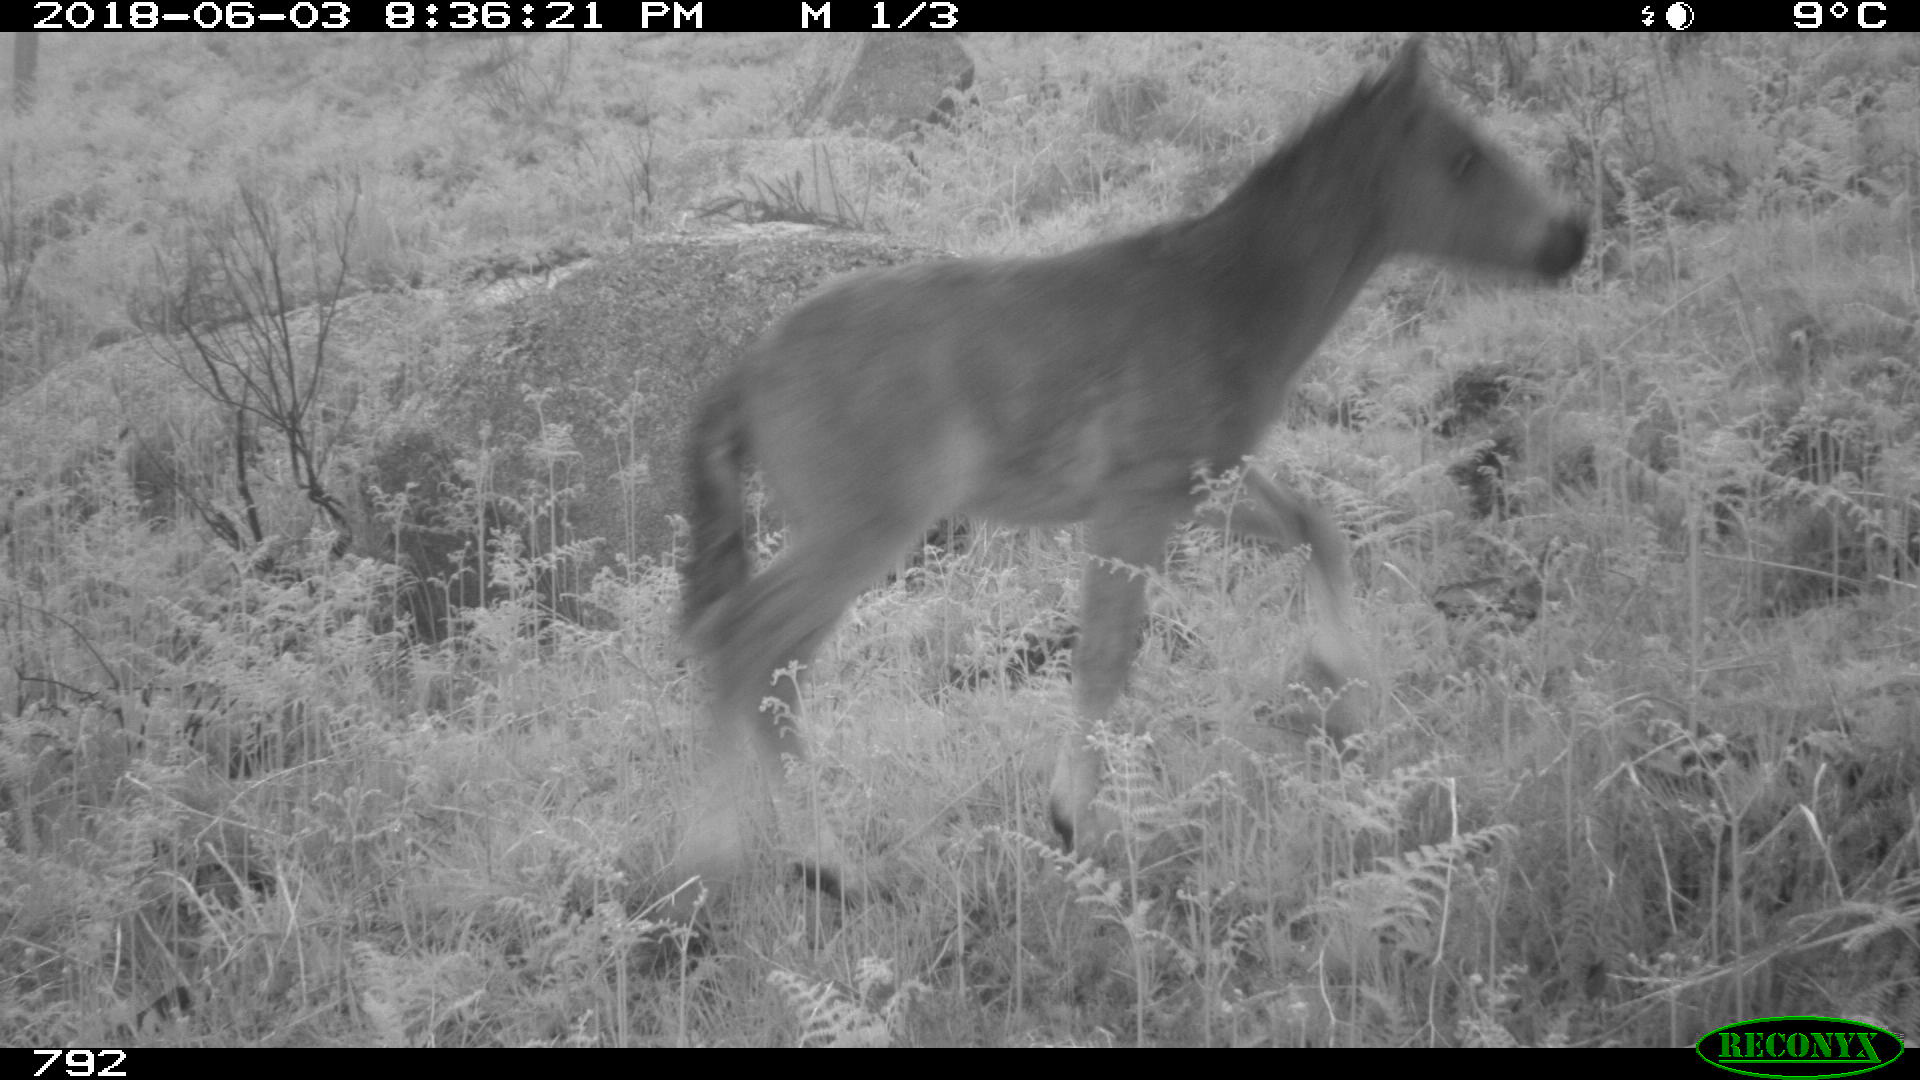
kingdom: Animalia
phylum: Chordata
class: Mammalia
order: Perissodactyla
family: Equidae
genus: Equus
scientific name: Equus caballus
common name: Horse
